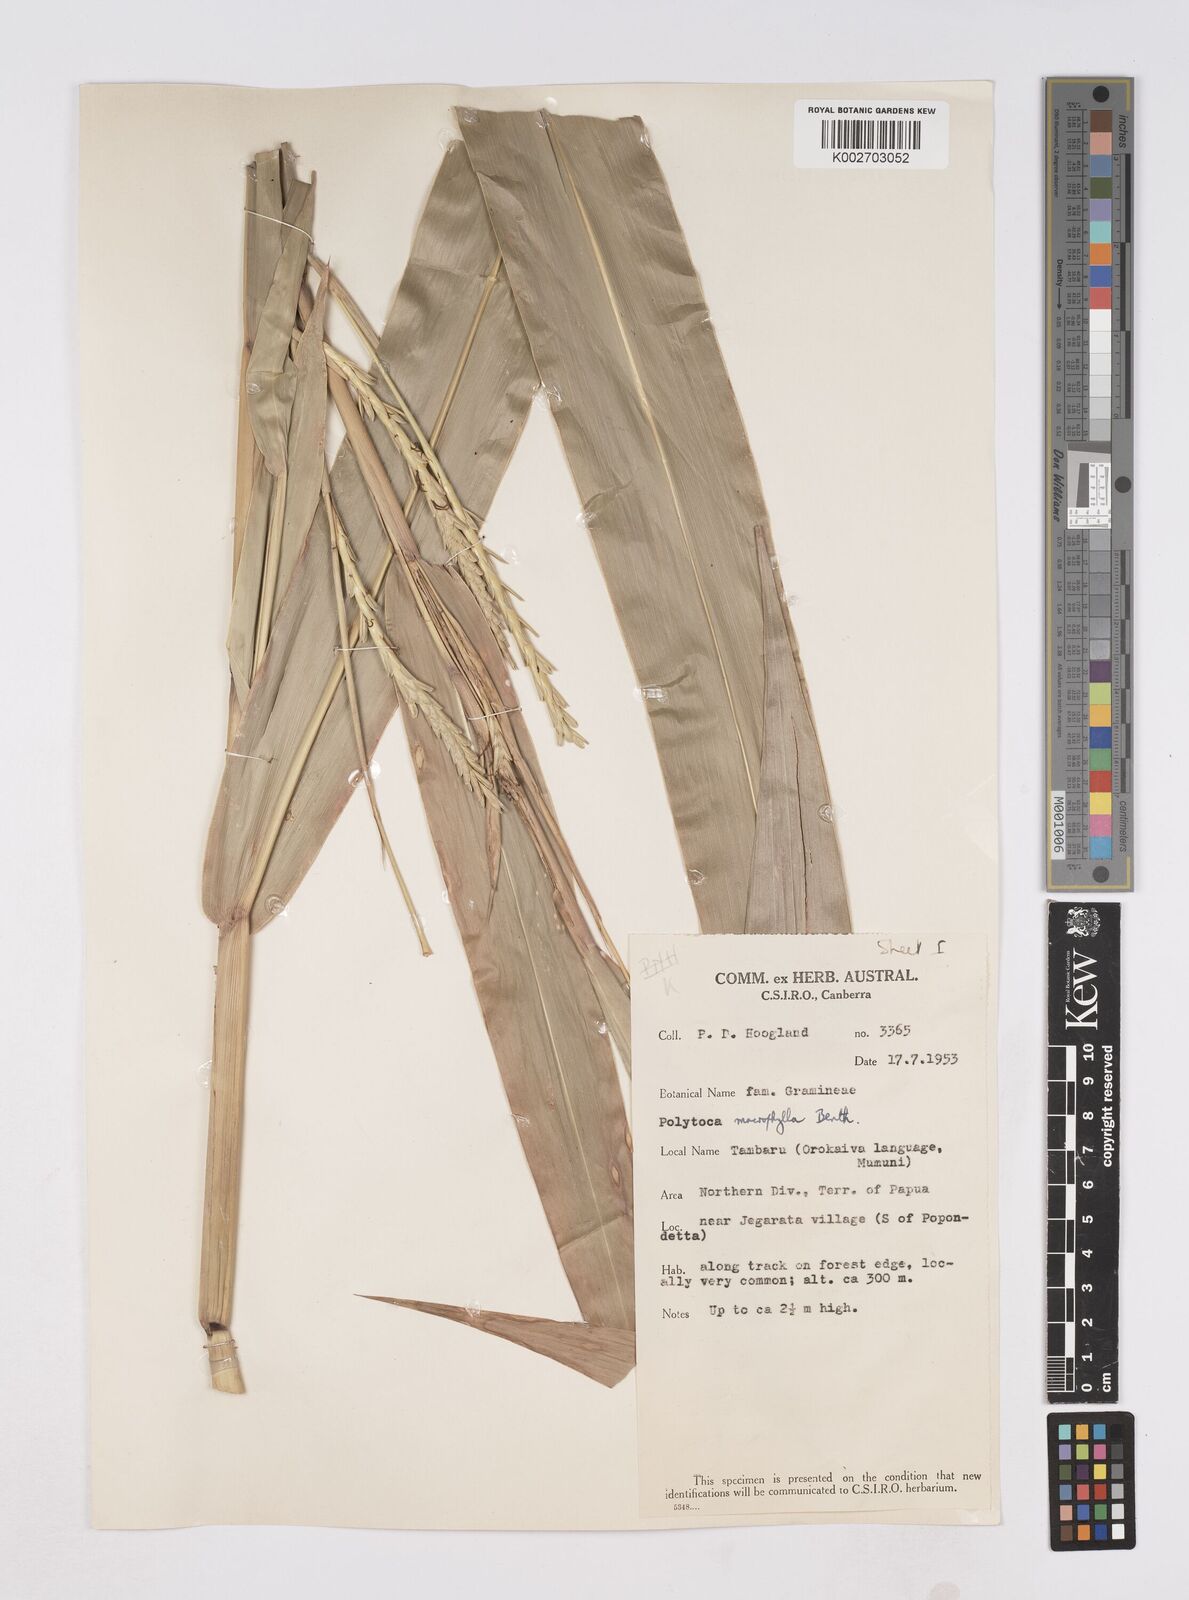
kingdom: Plantae
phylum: Tracheophyta
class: Liliopsida
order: Poales
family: Poaceae
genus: Polytoca
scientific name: Polytoca macrophylla
